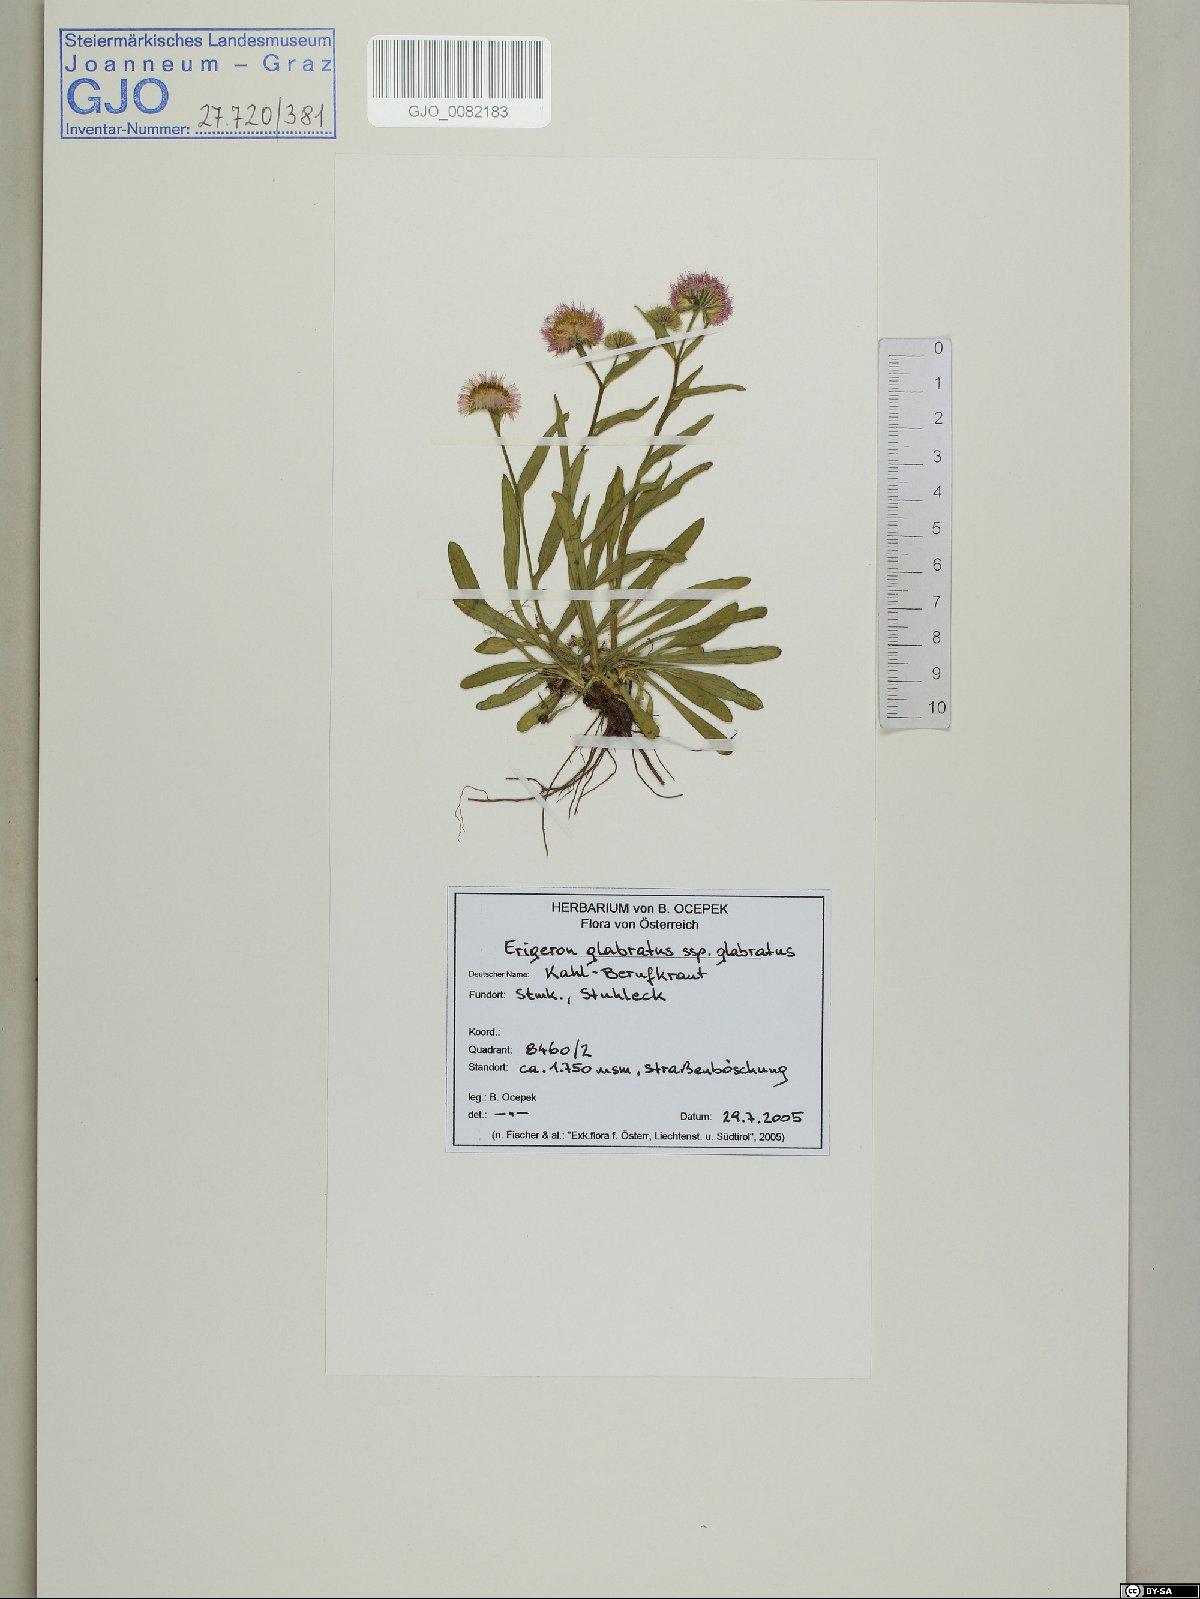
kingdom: Plantae
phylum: Tracheophyta
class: Magnoliopsida
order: Asterales
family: Asteraceae
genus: Erigeron
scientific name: Erigeron glabratus
